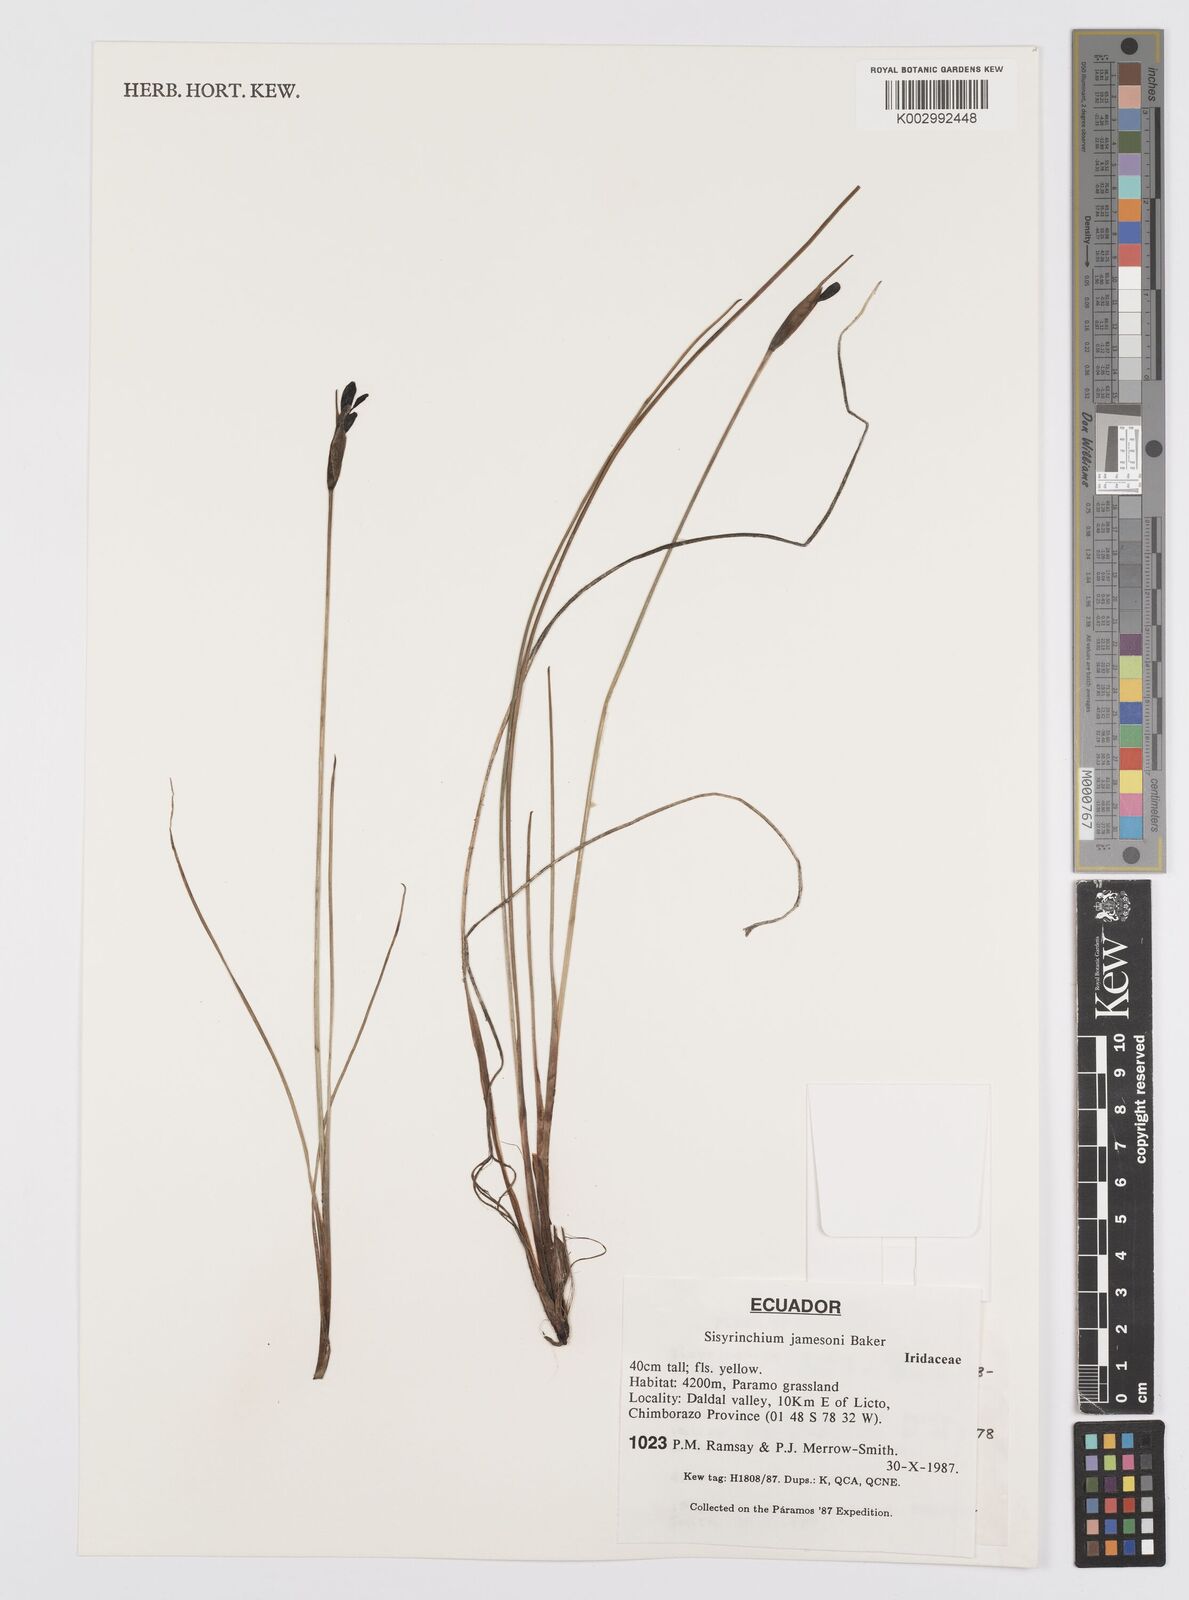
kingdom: Plantae
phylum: Tracheophyta
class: Liliopsida
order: Asparagales
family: Iridaceae
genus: Sisyrinchium
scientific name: Sisyrinchium jamesonii
